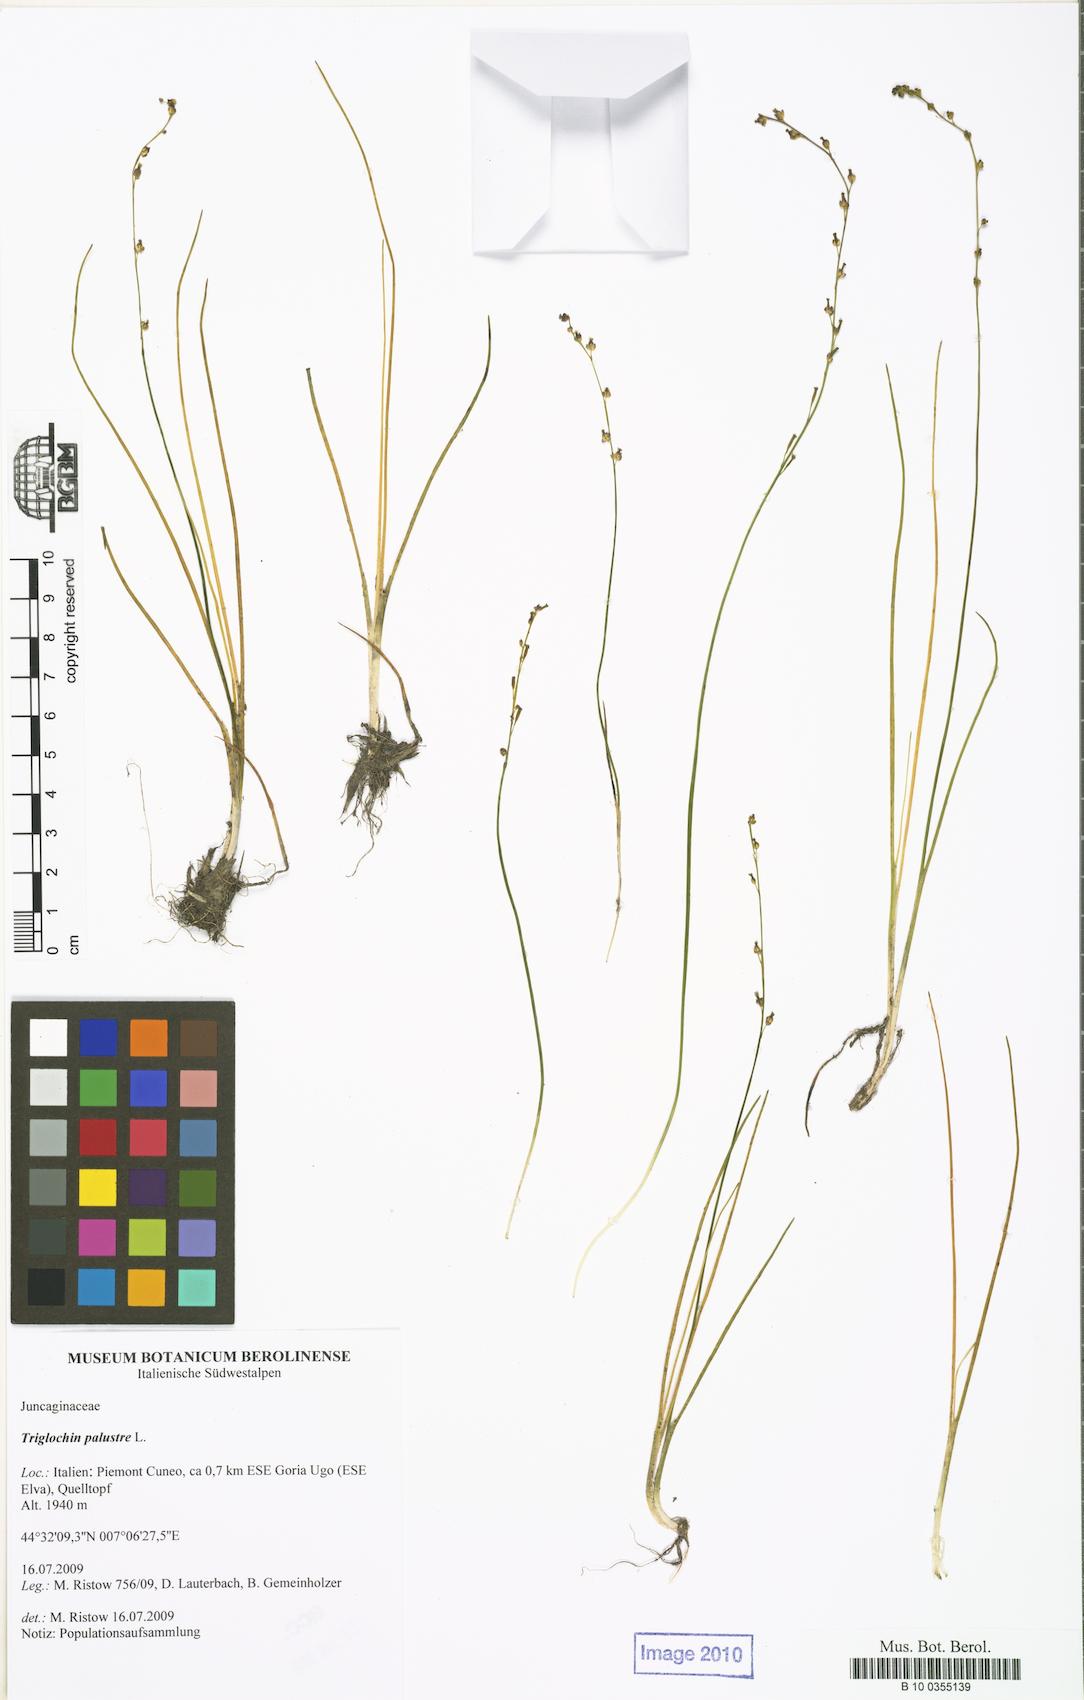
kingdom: Plantae
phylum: Tracheophyta
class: Liliopsida
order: Alismatales
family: Juncaginaceae
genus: Triglochin
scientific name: Triglochin palustris
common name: Marsh arrowgrass
